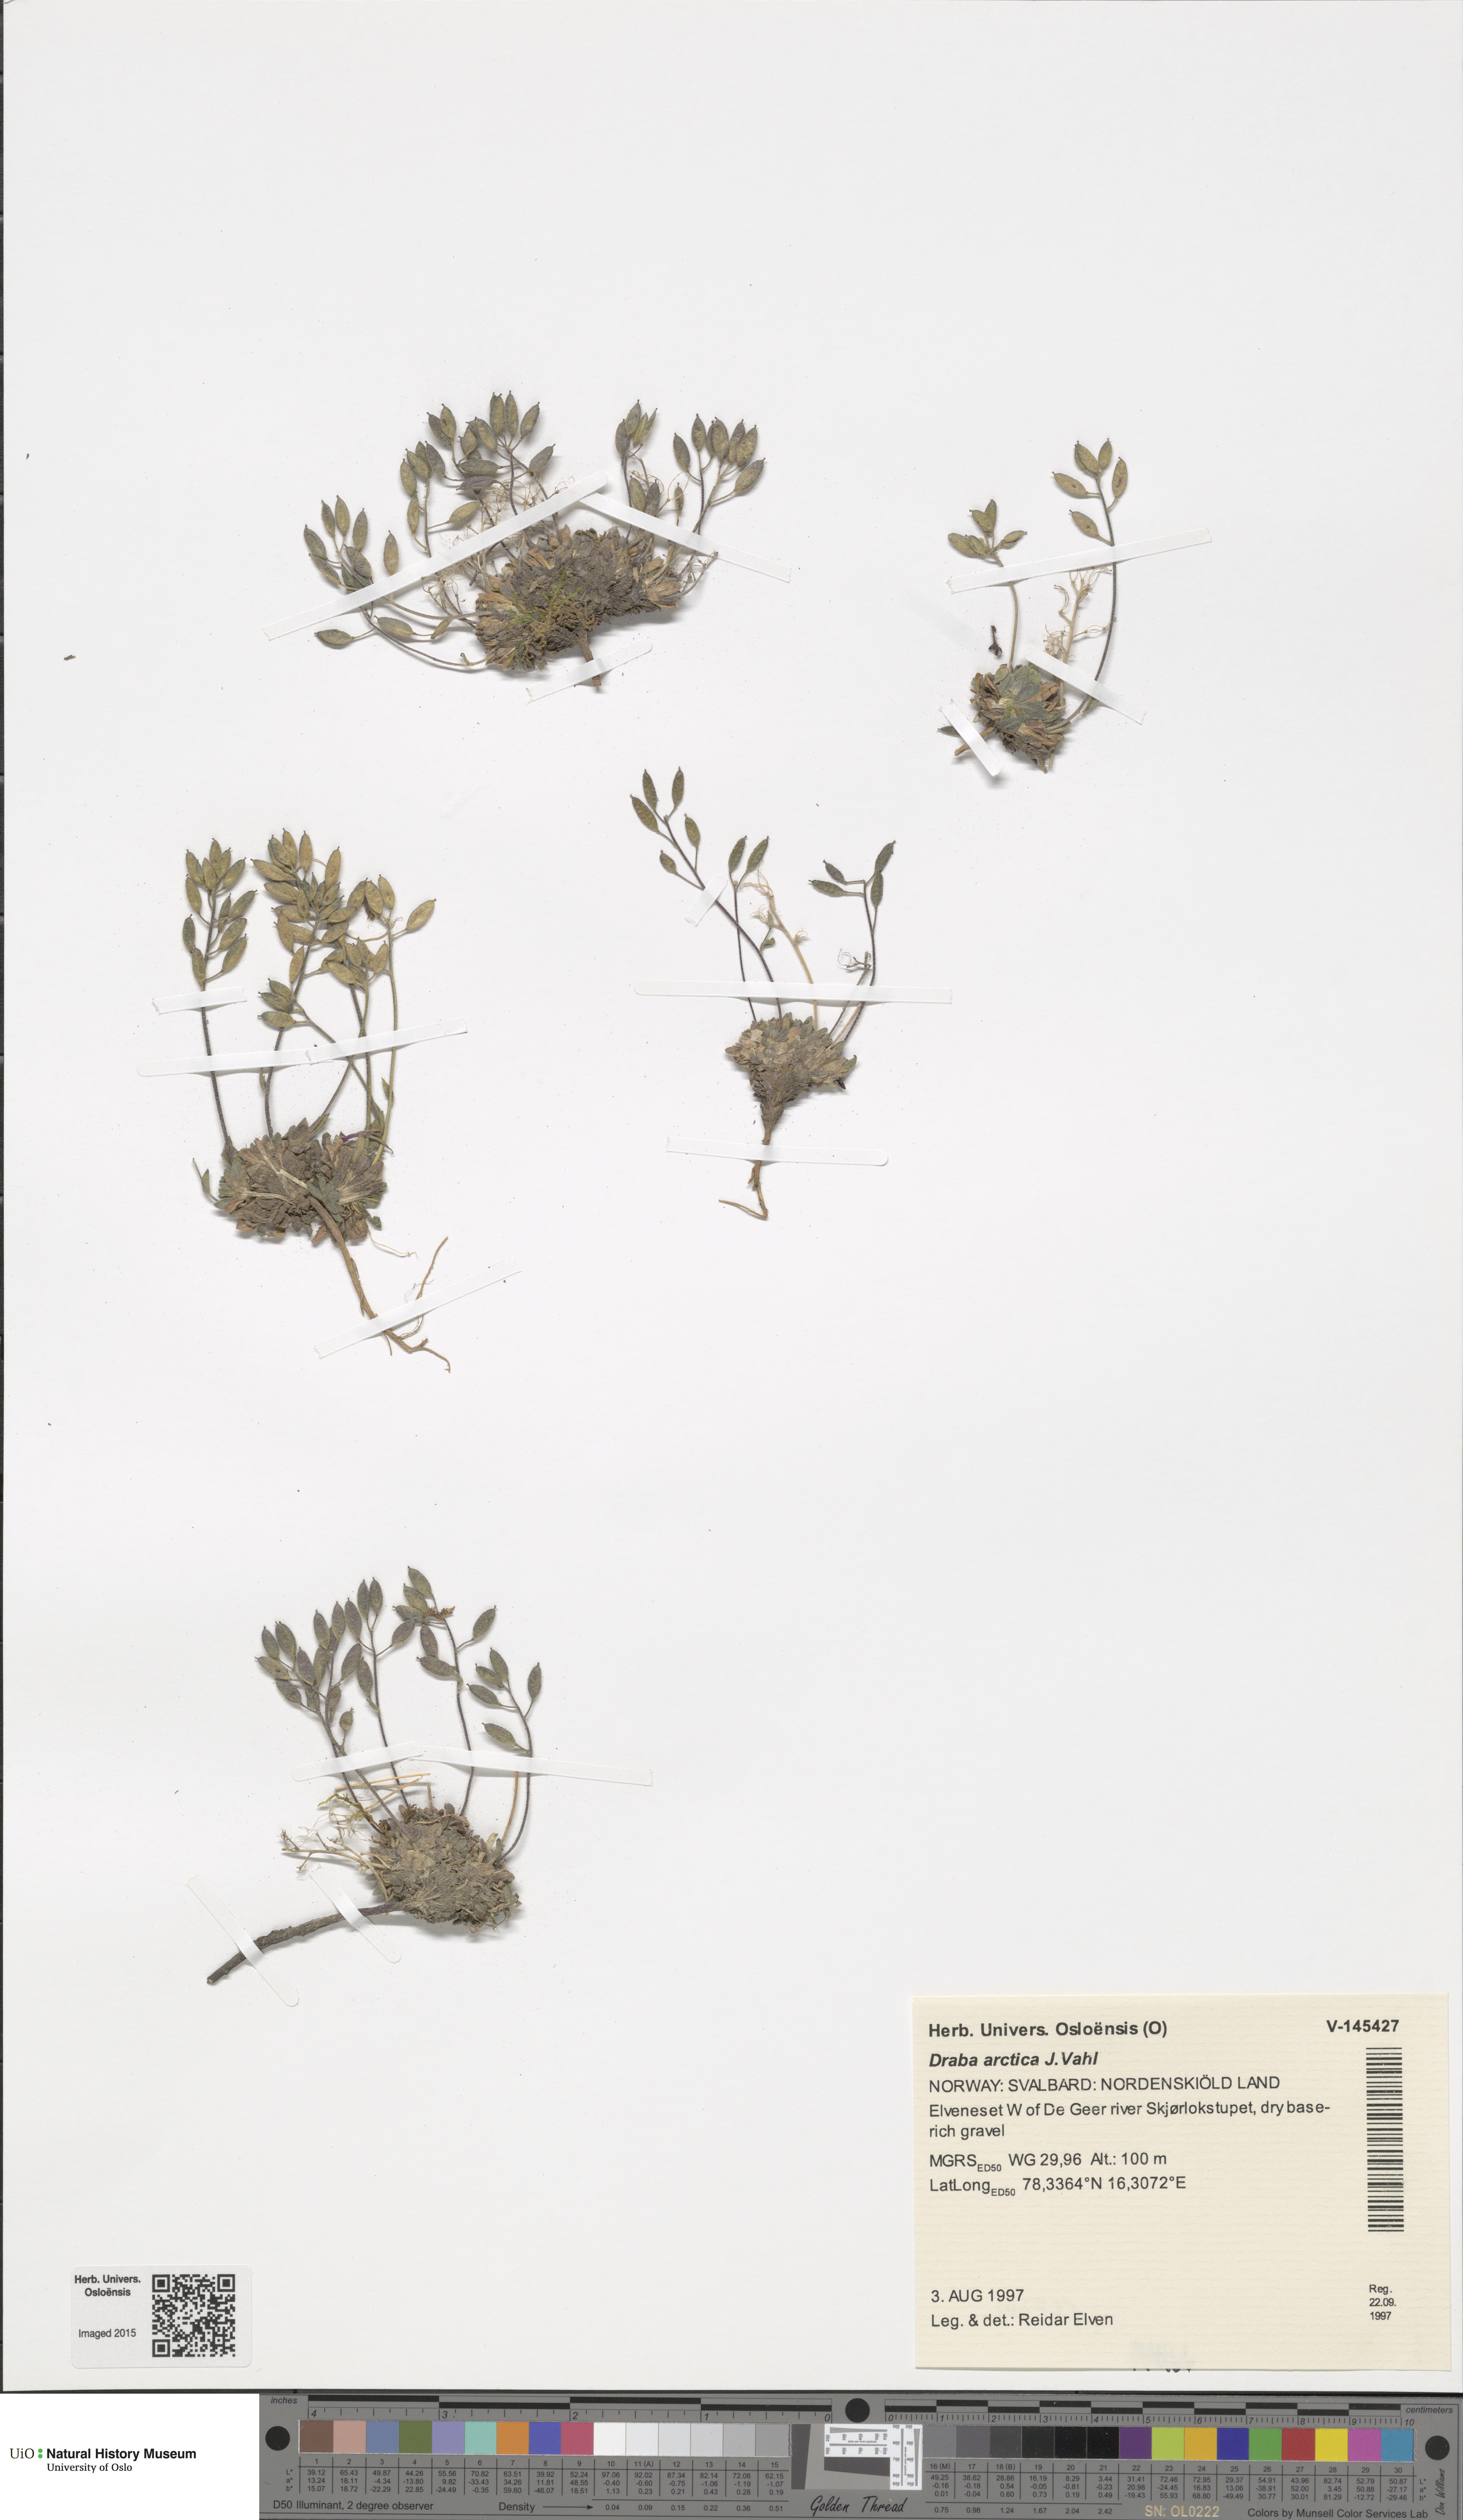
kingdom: Plantae
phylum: Tracheophyta
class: Magnoliopsida
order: Brassicales
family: Brassicaceae
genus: Draba
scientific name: Draba arctica
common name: Arctic draba
